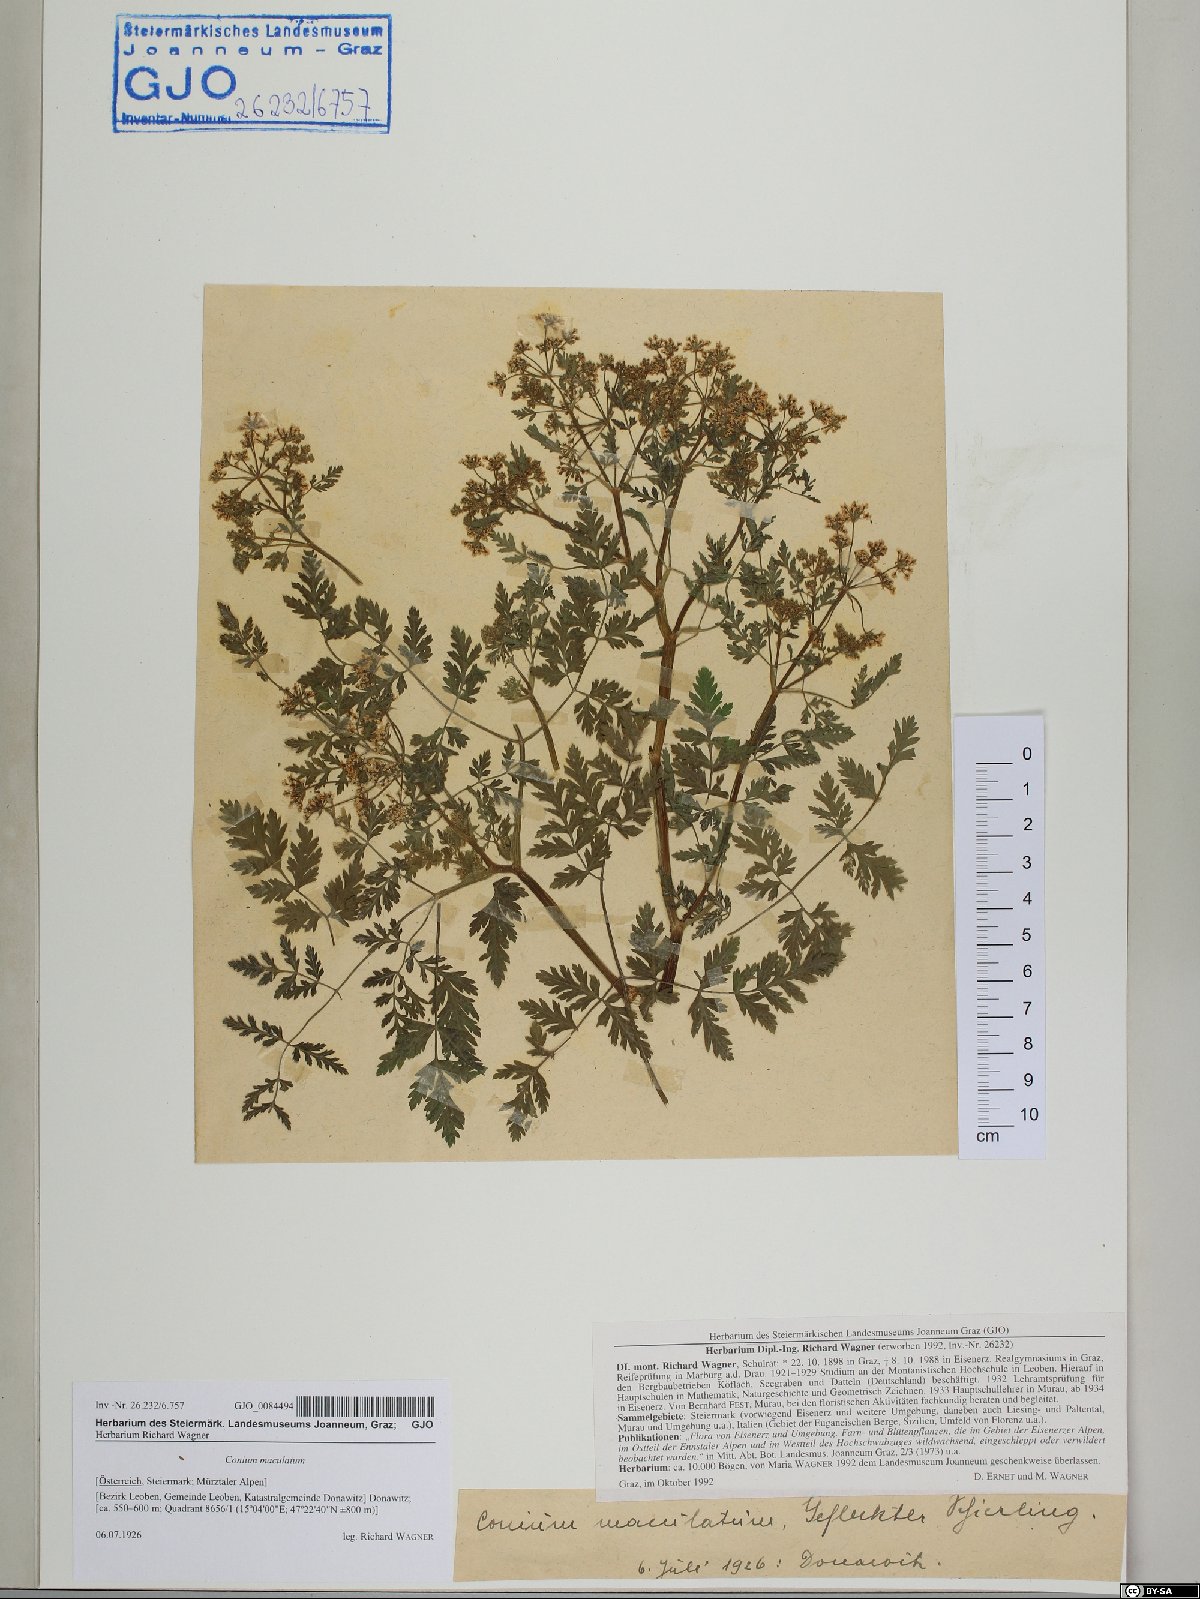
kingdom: Plantae
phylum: Tracheophyta
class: Magnoliopsida
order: Apiales
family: Apiaceae
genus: Conium
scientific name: Conium maculatum
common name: Hemlock
